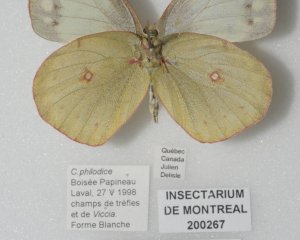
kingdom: Animalia
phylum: Arthropoda
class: Insecta
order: Lepidoptera
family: Pieridae
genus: Colias
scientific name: Colias philodice
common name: Clouded Sulphur
